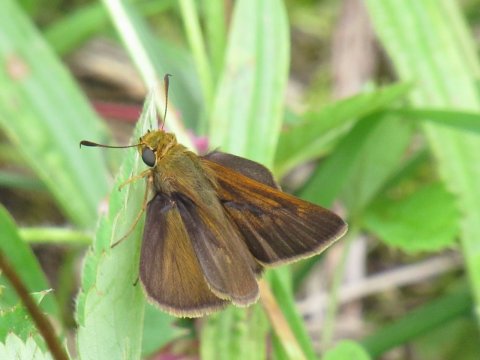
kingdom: Animalia
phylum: Arthropoda
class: Insecta
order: Lepidoptera
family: Hesperiidae
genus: Euphyes
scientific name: Euphyes vestris
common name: Dun Skipper
